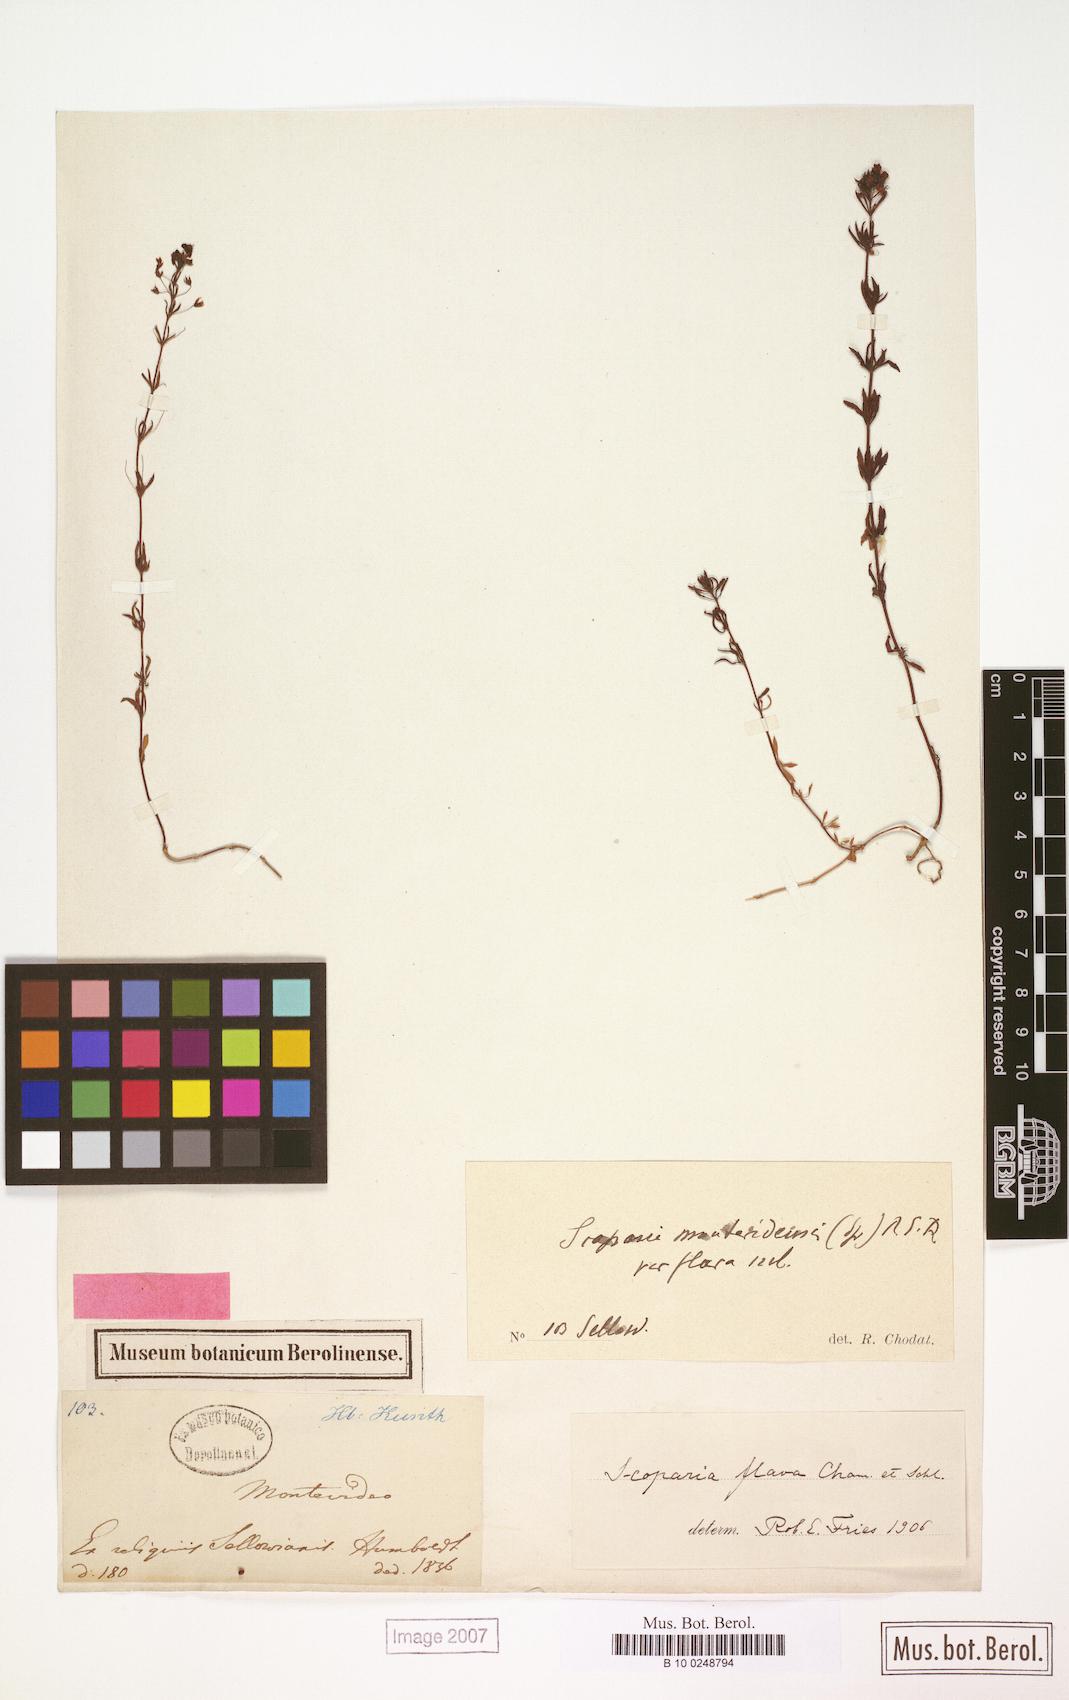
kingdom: Plantae
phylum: Tracheophyta
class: Magnoliopsida
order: Lamiales
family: Plantaginaceae
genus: Scoparia
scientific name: Scoparia montevidensis
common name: Broomwort
